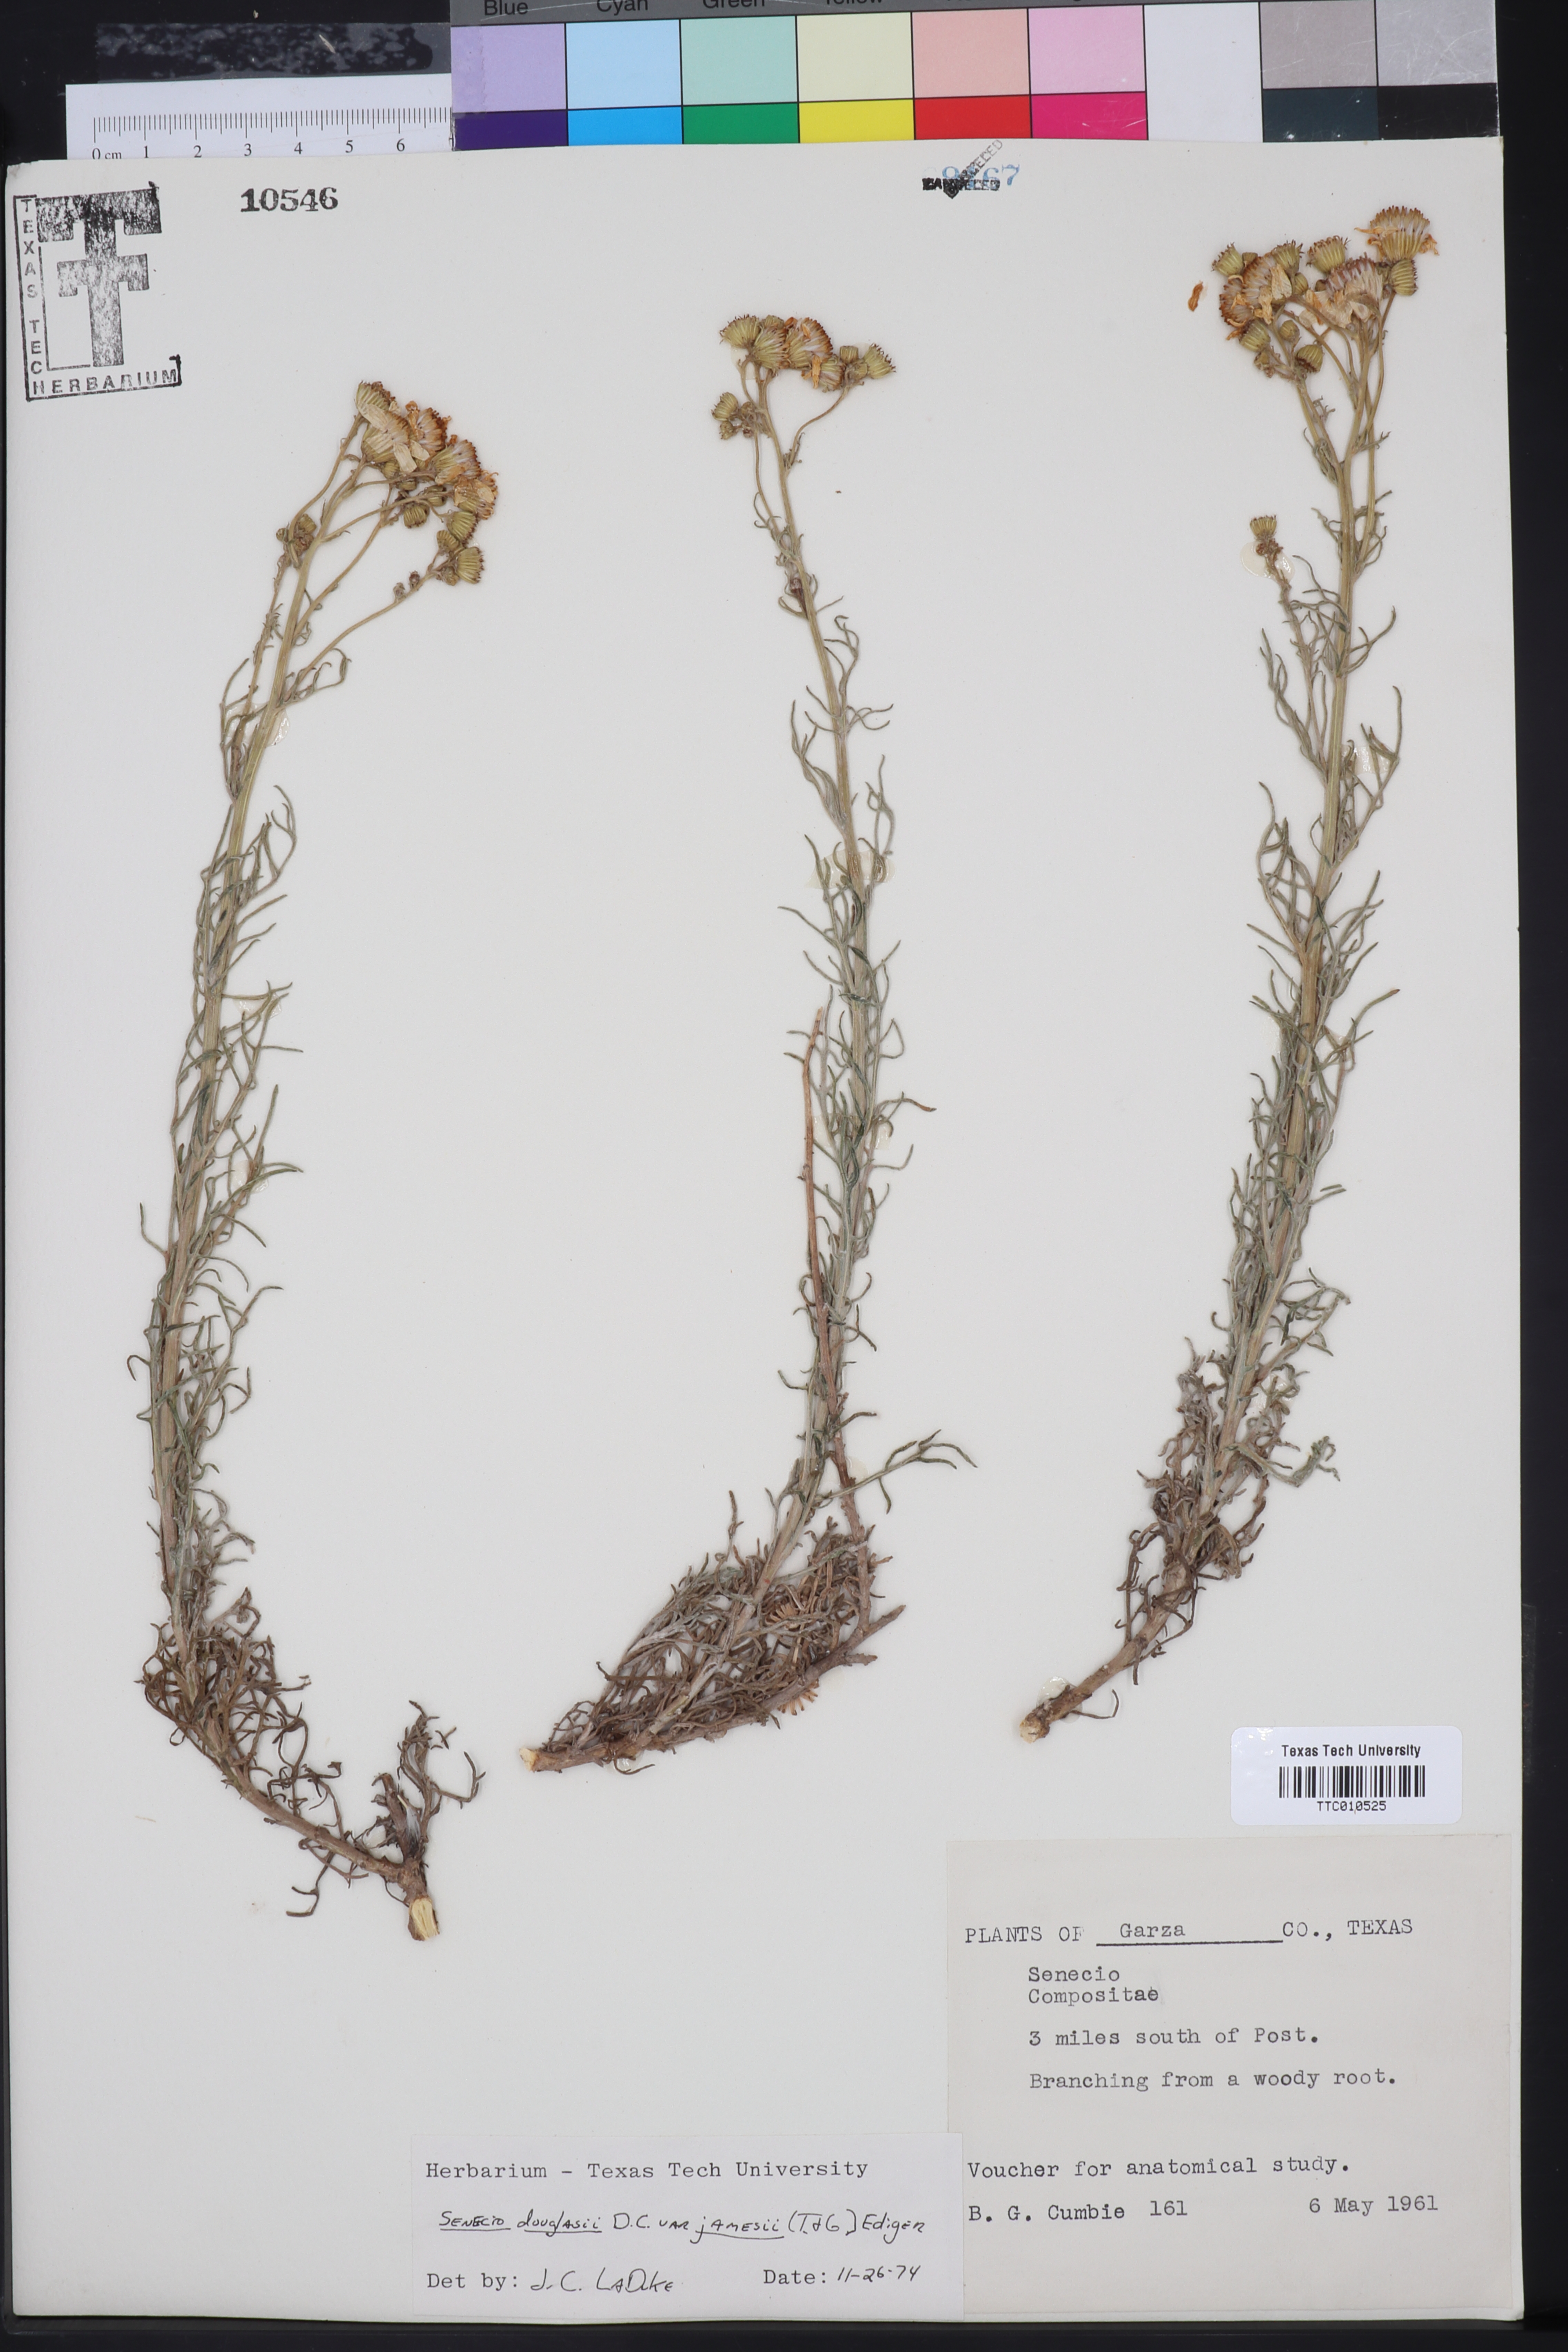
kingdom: Plantae
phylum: Tracheophyta
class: Magnoliopsida
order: Asterales
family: Asteraceae
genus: Senecio
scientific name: Senecio flaccidus
